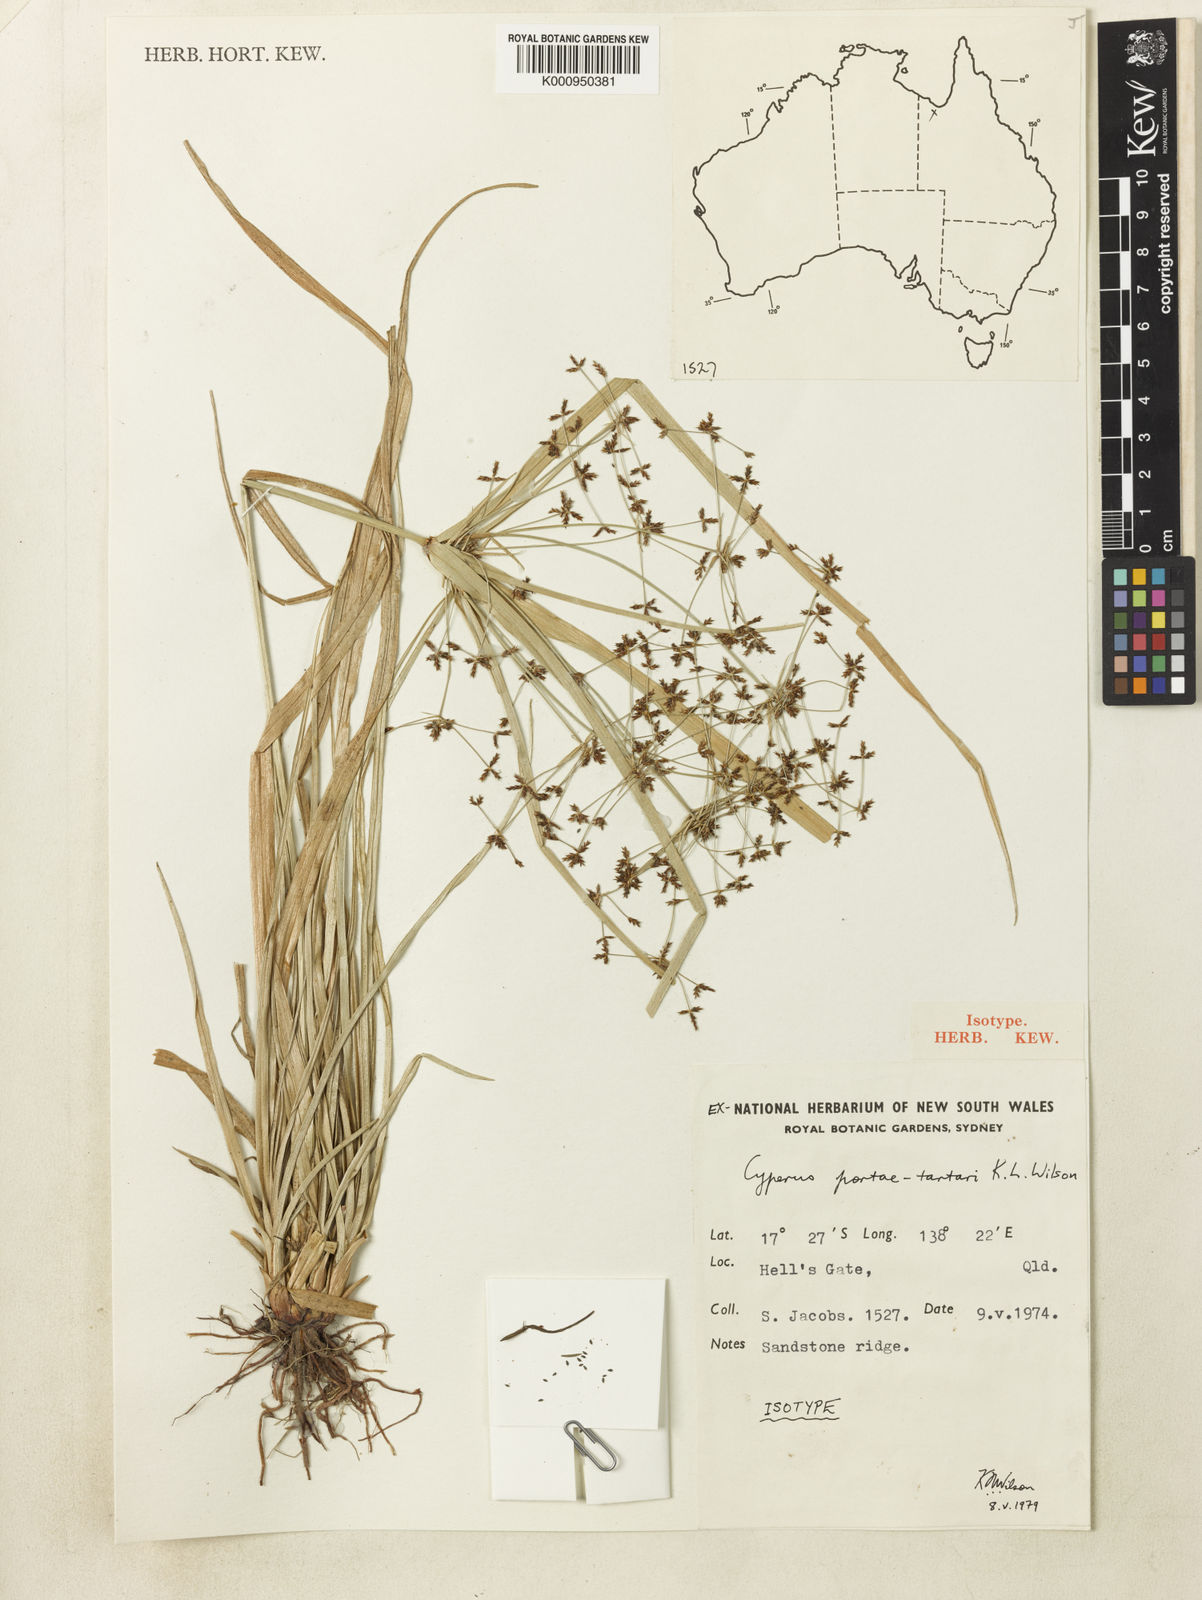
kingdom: Plantae
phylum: Tracheophyta
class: Liliopsida
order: Poales
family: Cyperaceae
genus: Cyperus
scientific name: Cyperus portae-tartari
